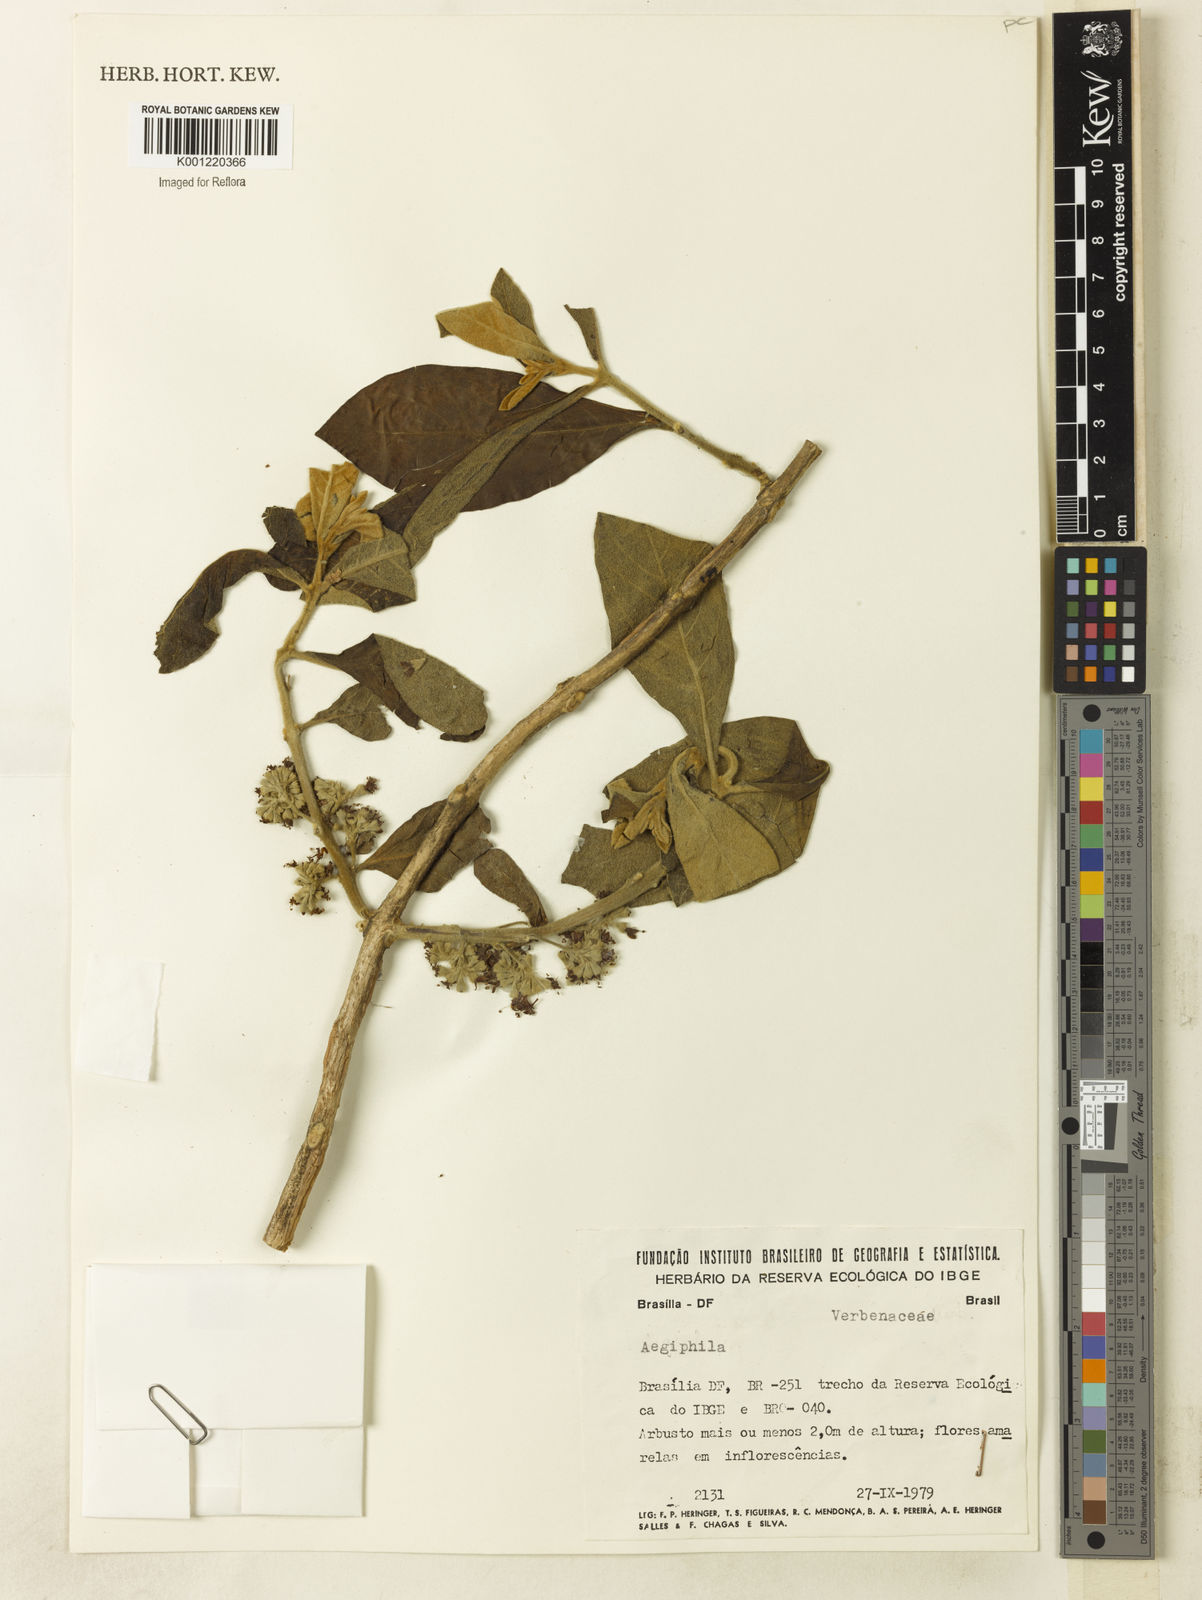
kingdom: Plantae
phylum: Tracheophyta
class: Magnoliopsida
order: Lamiales
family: Lamiaceae
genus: Aegiphila
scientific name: Aegiphila
